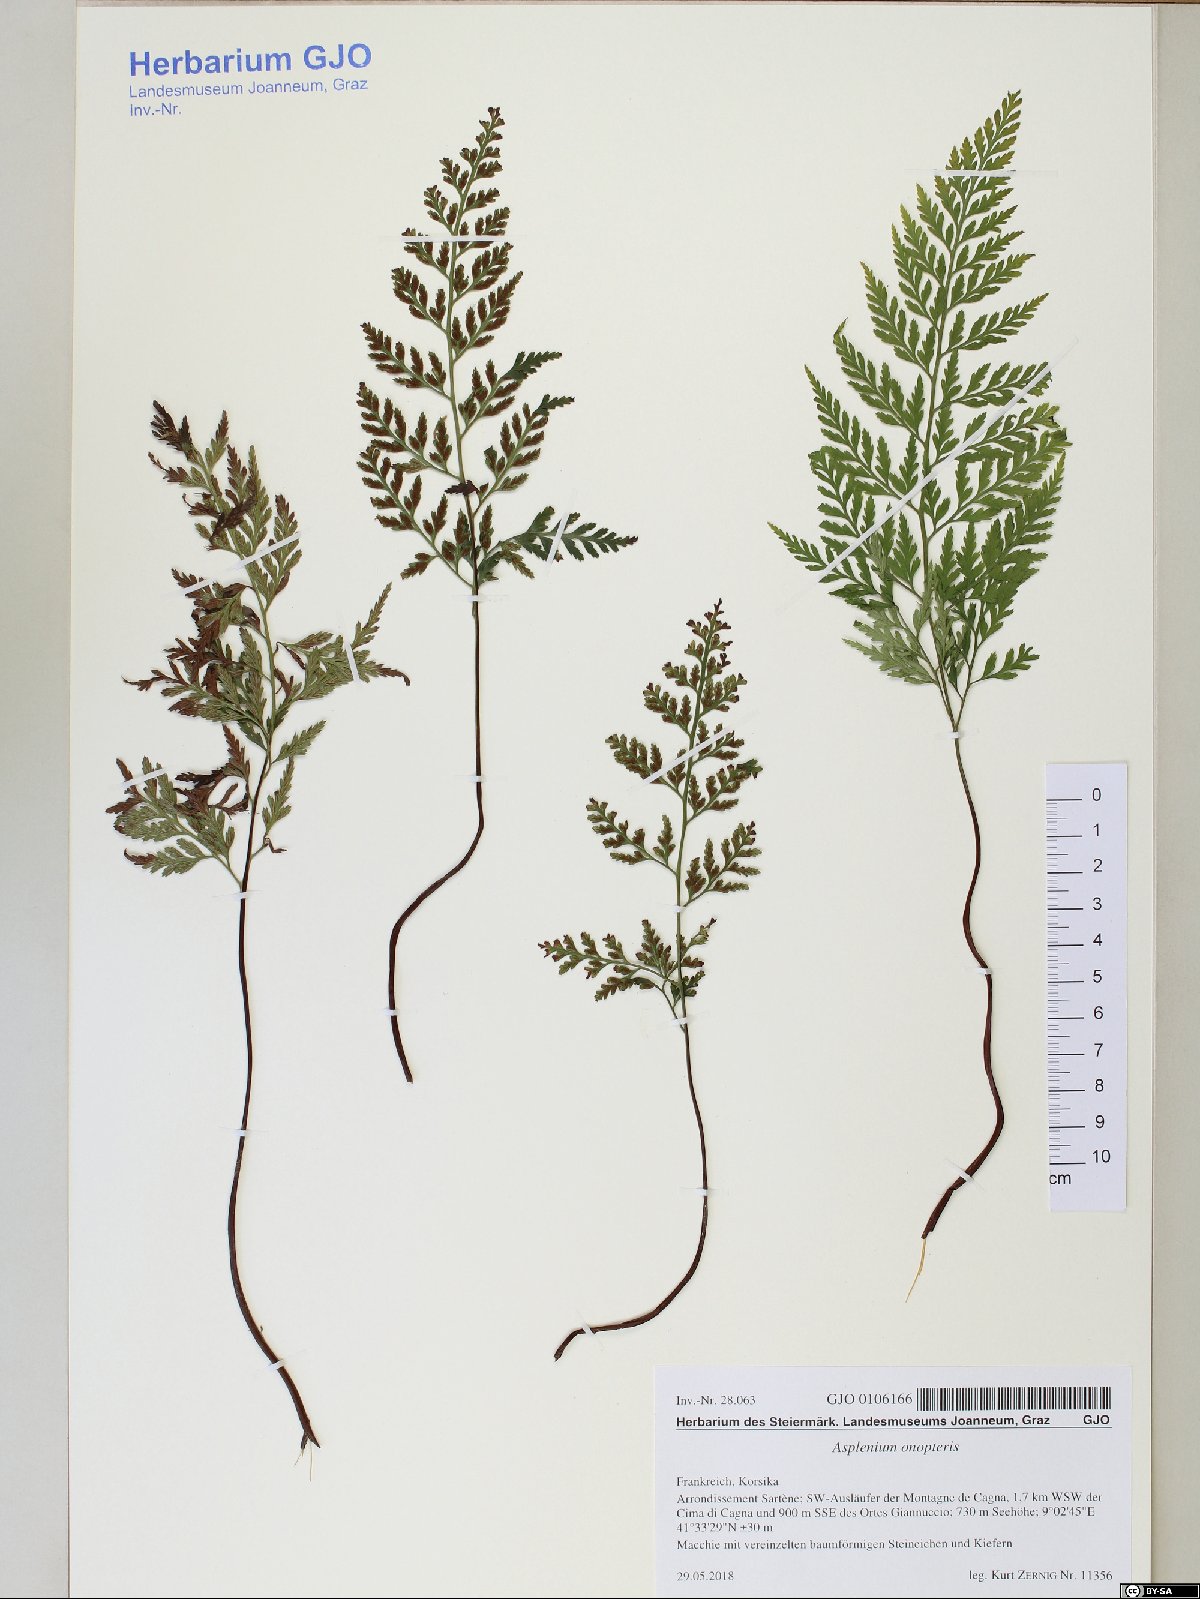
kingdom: Plantae
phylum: Tracheophyta
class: Polypodiopsida
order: Polypodiales
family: Aspleniaceae
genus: Asplenium
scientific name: Asplenium onopteris
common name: Irish spleenwort
